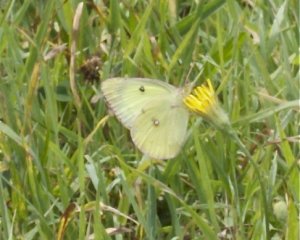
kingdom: Animalia
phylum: Arthropoda
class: Insecta
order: Lepidoptera
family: Pieridae
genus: Colias
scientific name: Colias philodice
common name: Clouded Sulphur
